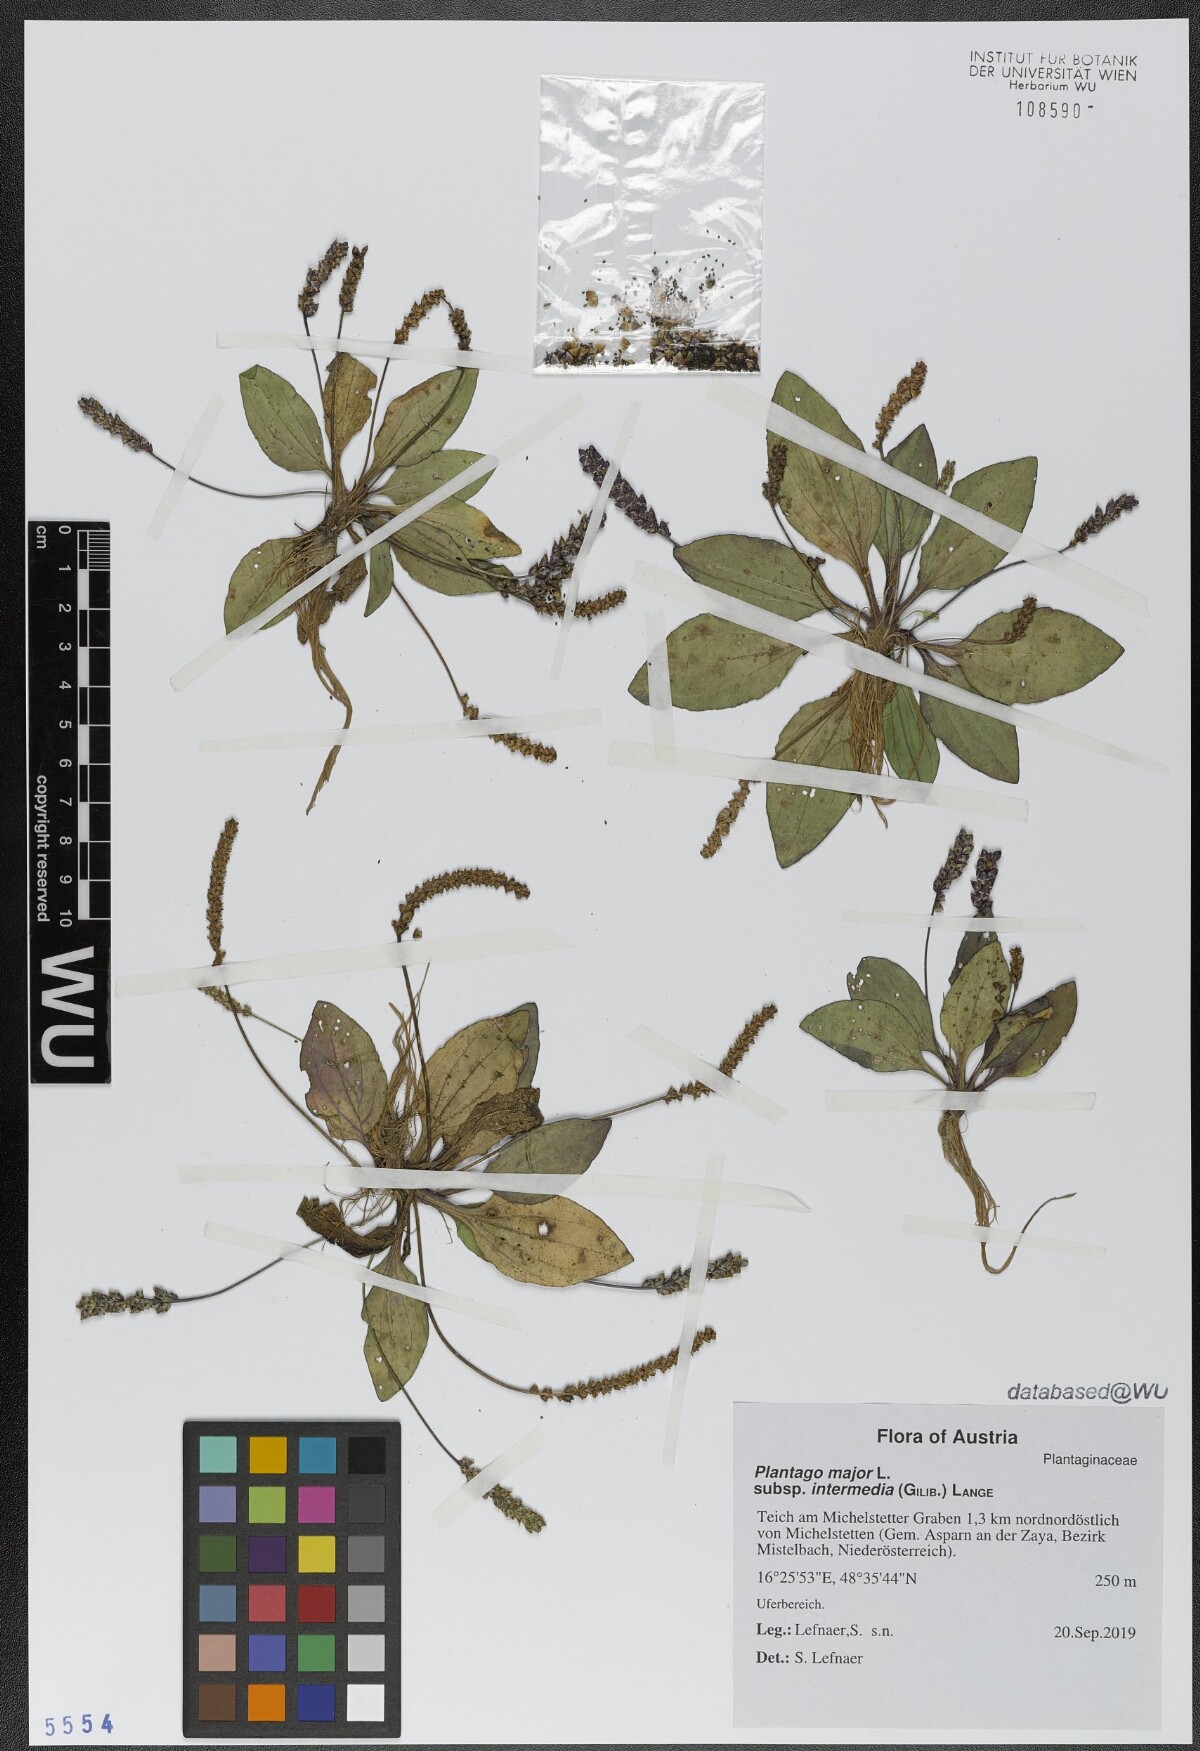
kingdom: Plantae
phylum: Tracheophyta
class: Magnoliopsida
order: Lamiales
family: Plantaginaceae
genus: Plantago
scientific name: Plantago uliginosa
